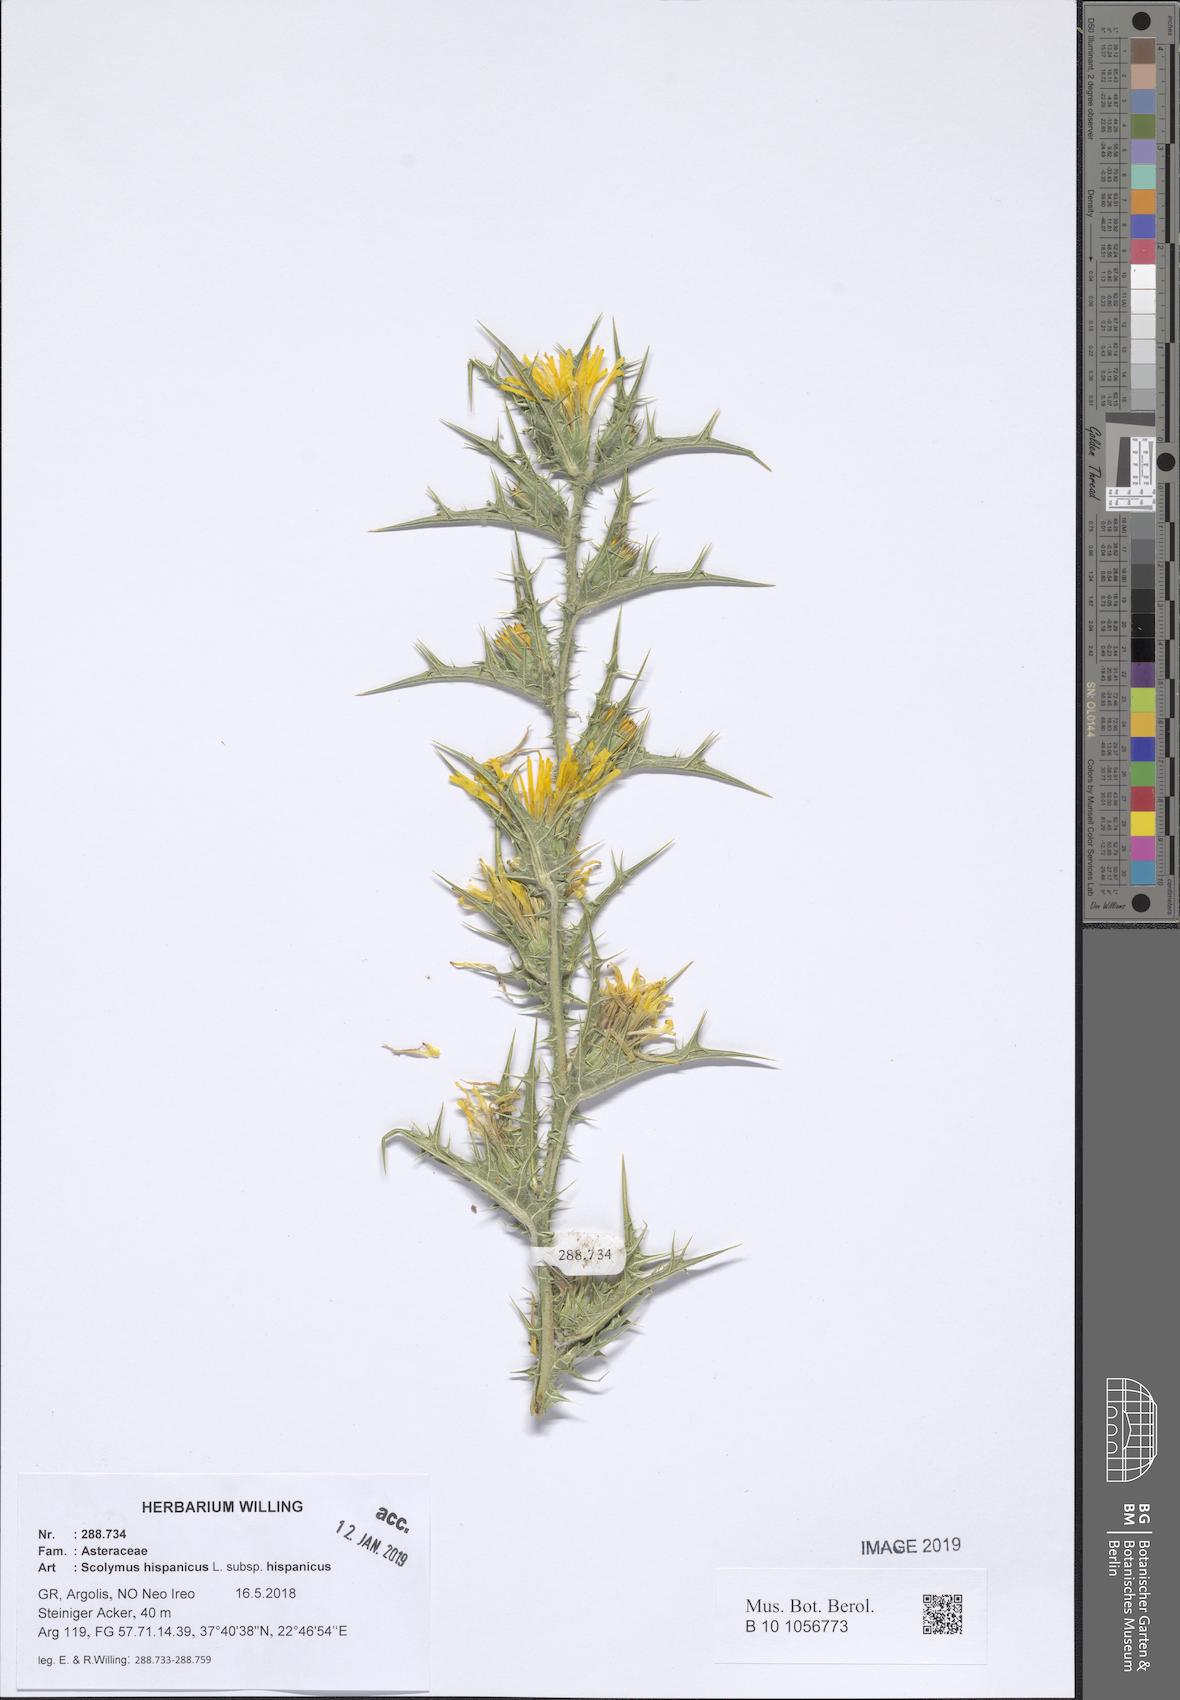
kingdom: Plantae
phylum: Tracheophyta
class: Magnoliopsida
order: Asterales
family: Asteraceae
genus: Scolymus
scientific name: Scolymus hispanicus
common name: Golden thistle
